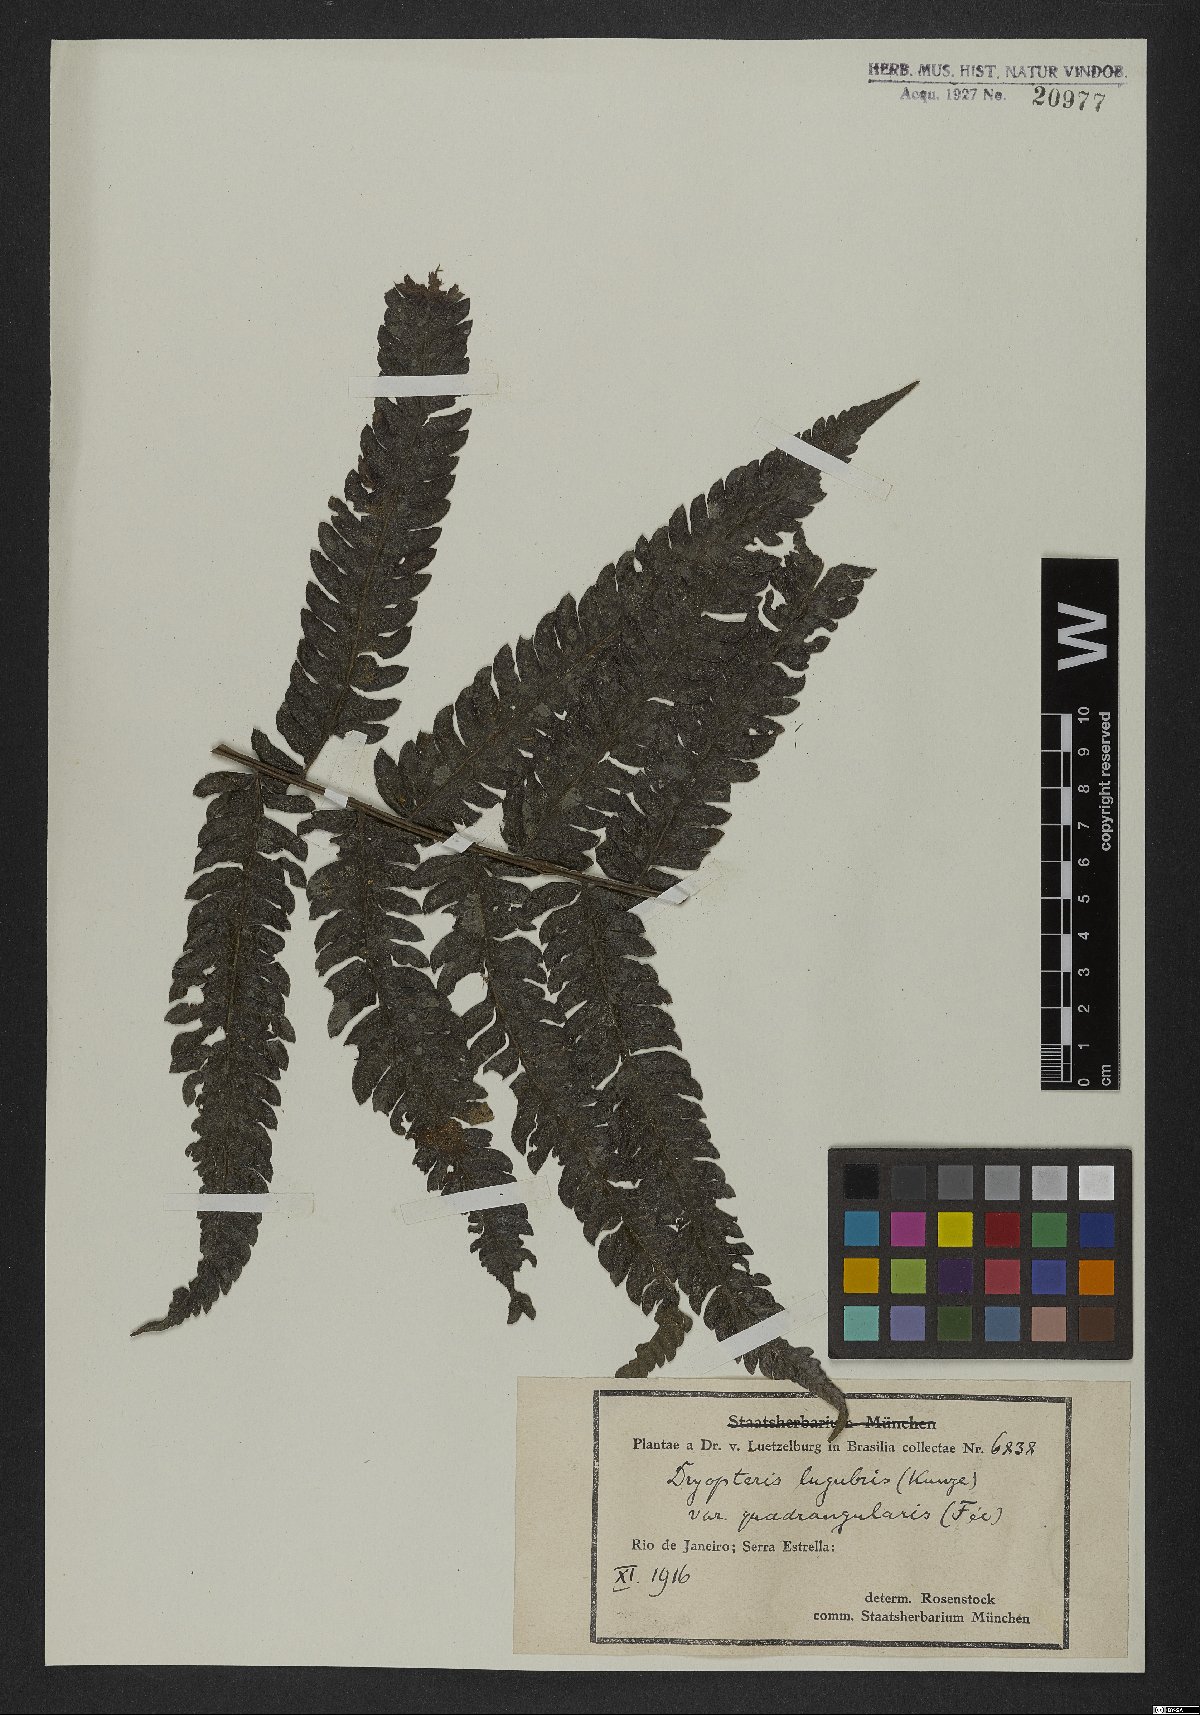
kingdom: Plantae
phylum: Tracheophyta
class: Polypodiopsida
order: Polypodiales
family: Thelypteridaceae
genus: Goniopteris
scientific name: Goniopteris montana
